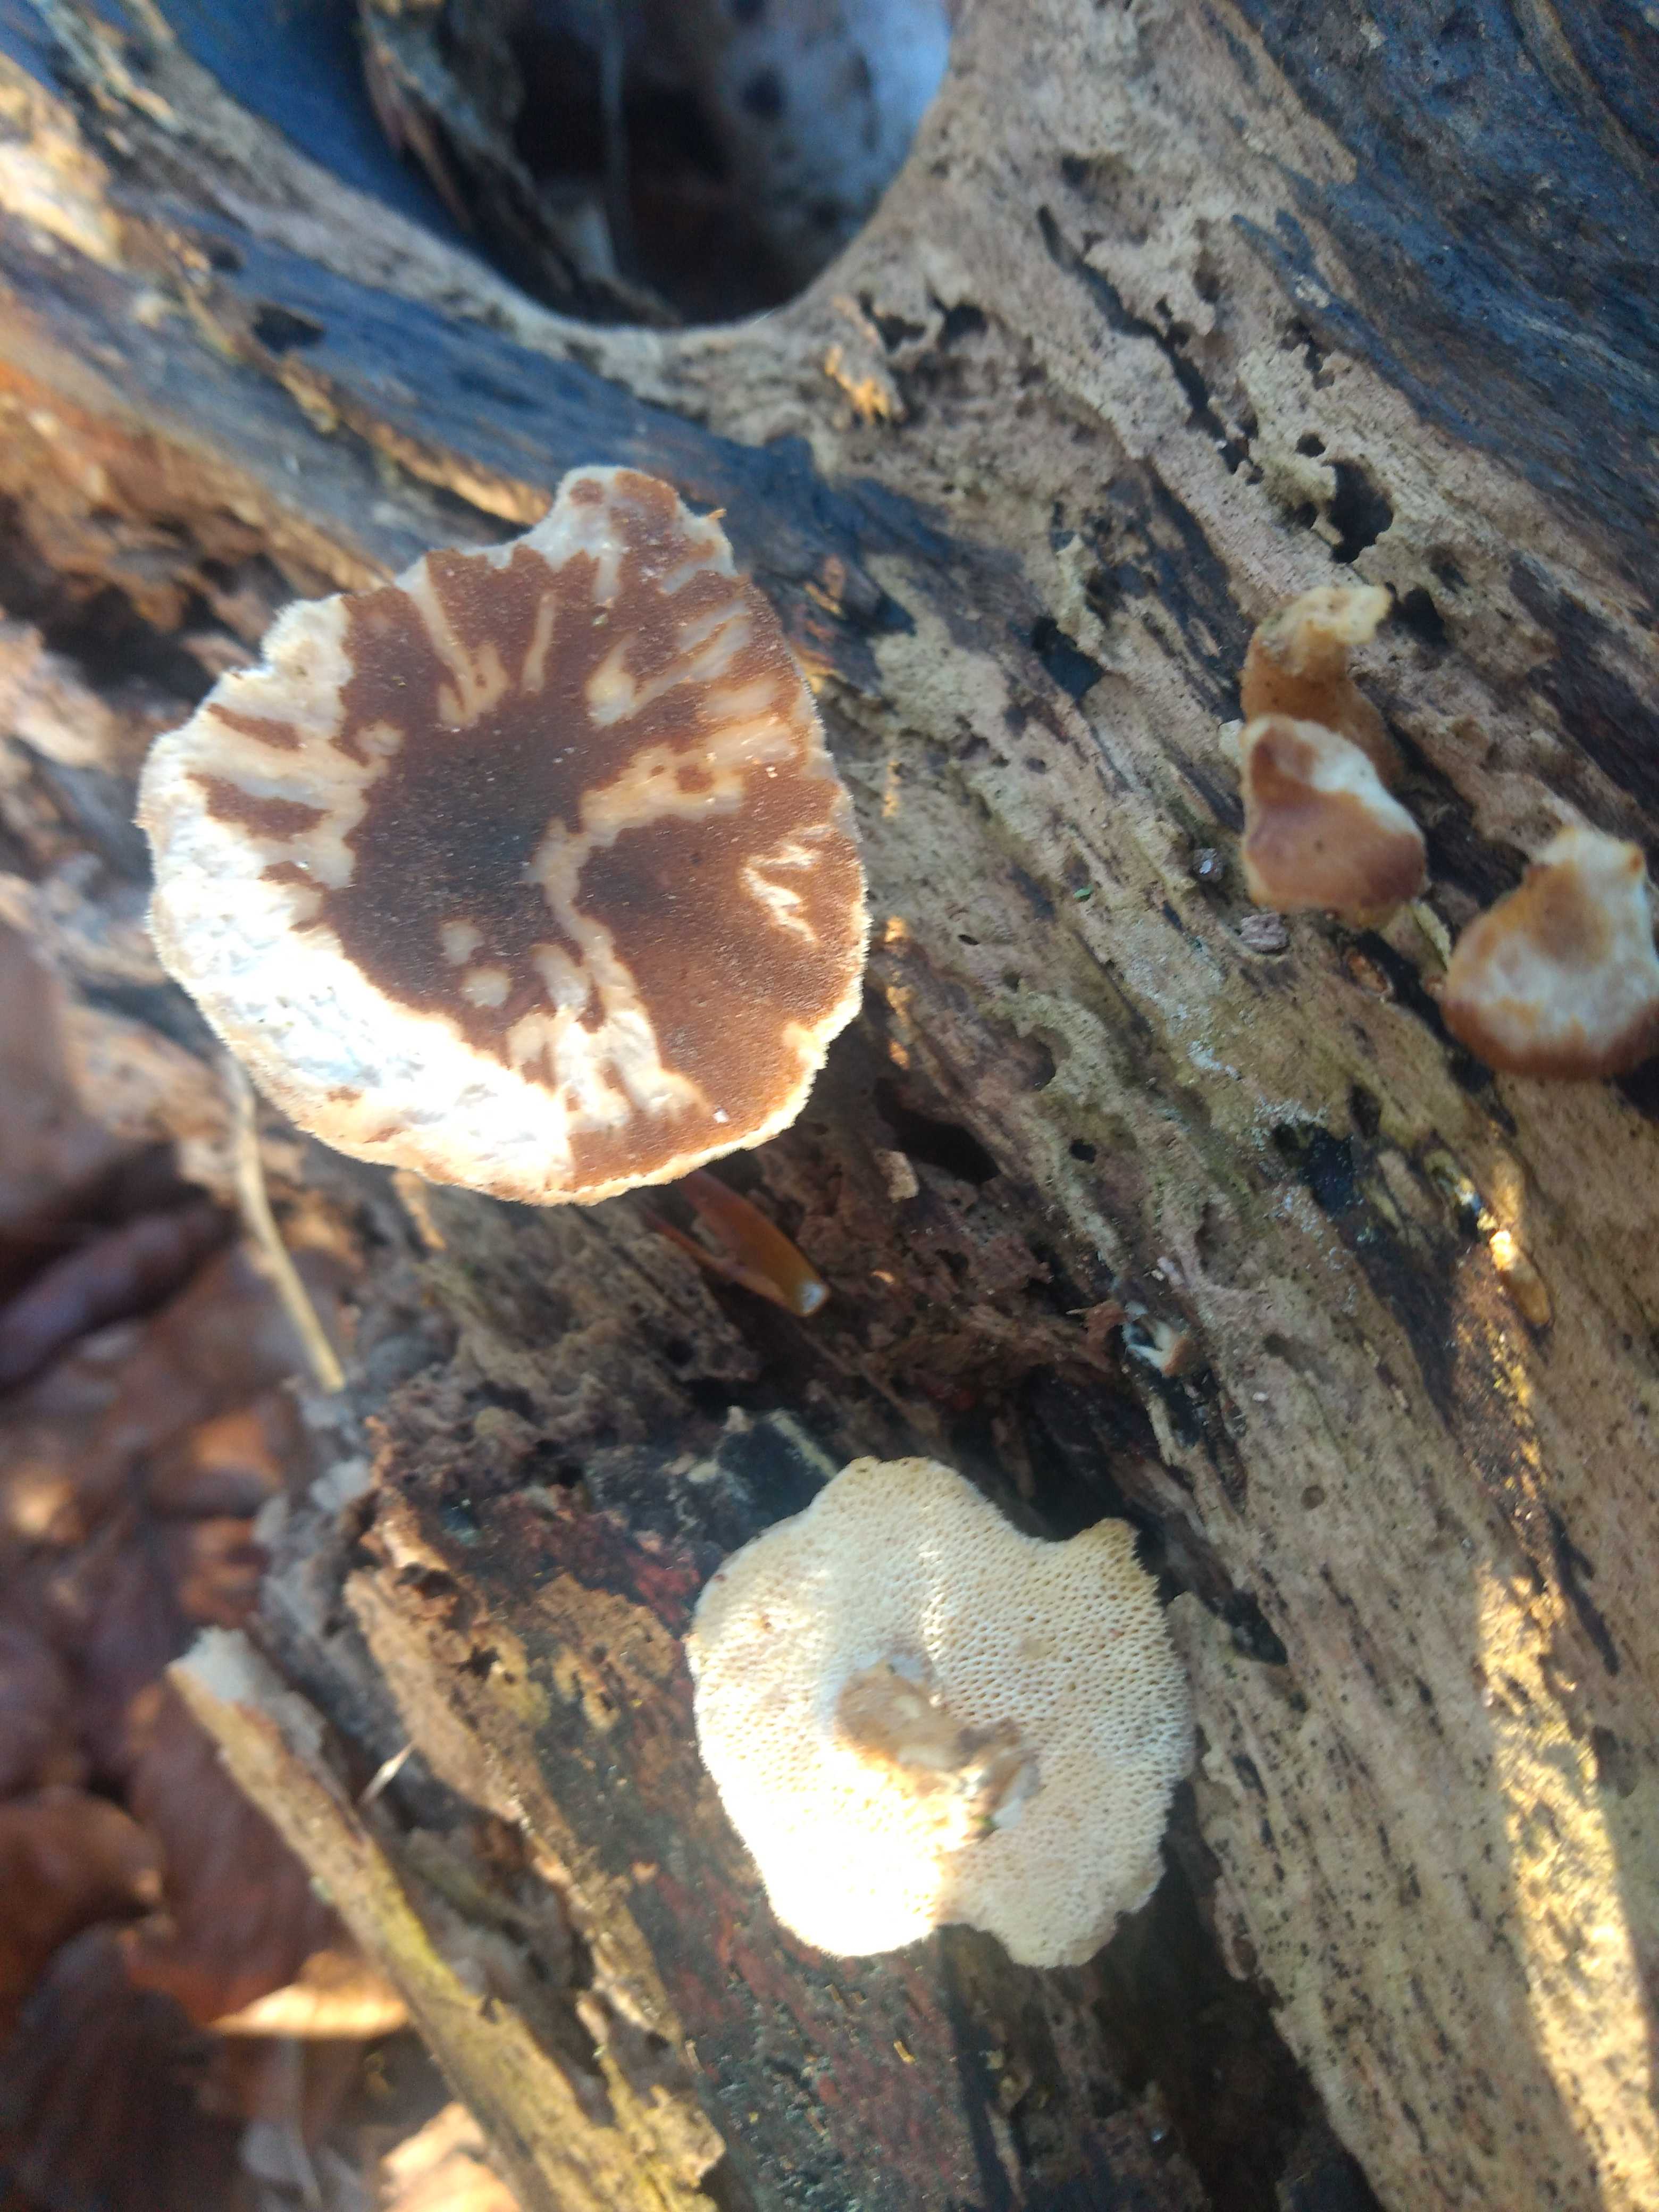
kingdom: Fungi
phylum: Basidiomycota
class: Agaricomycetes
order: Polyporales
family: Polyporaceae
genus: Lentinus
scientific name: Lentinus brumalis
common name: vinter-stilkporesvamp
